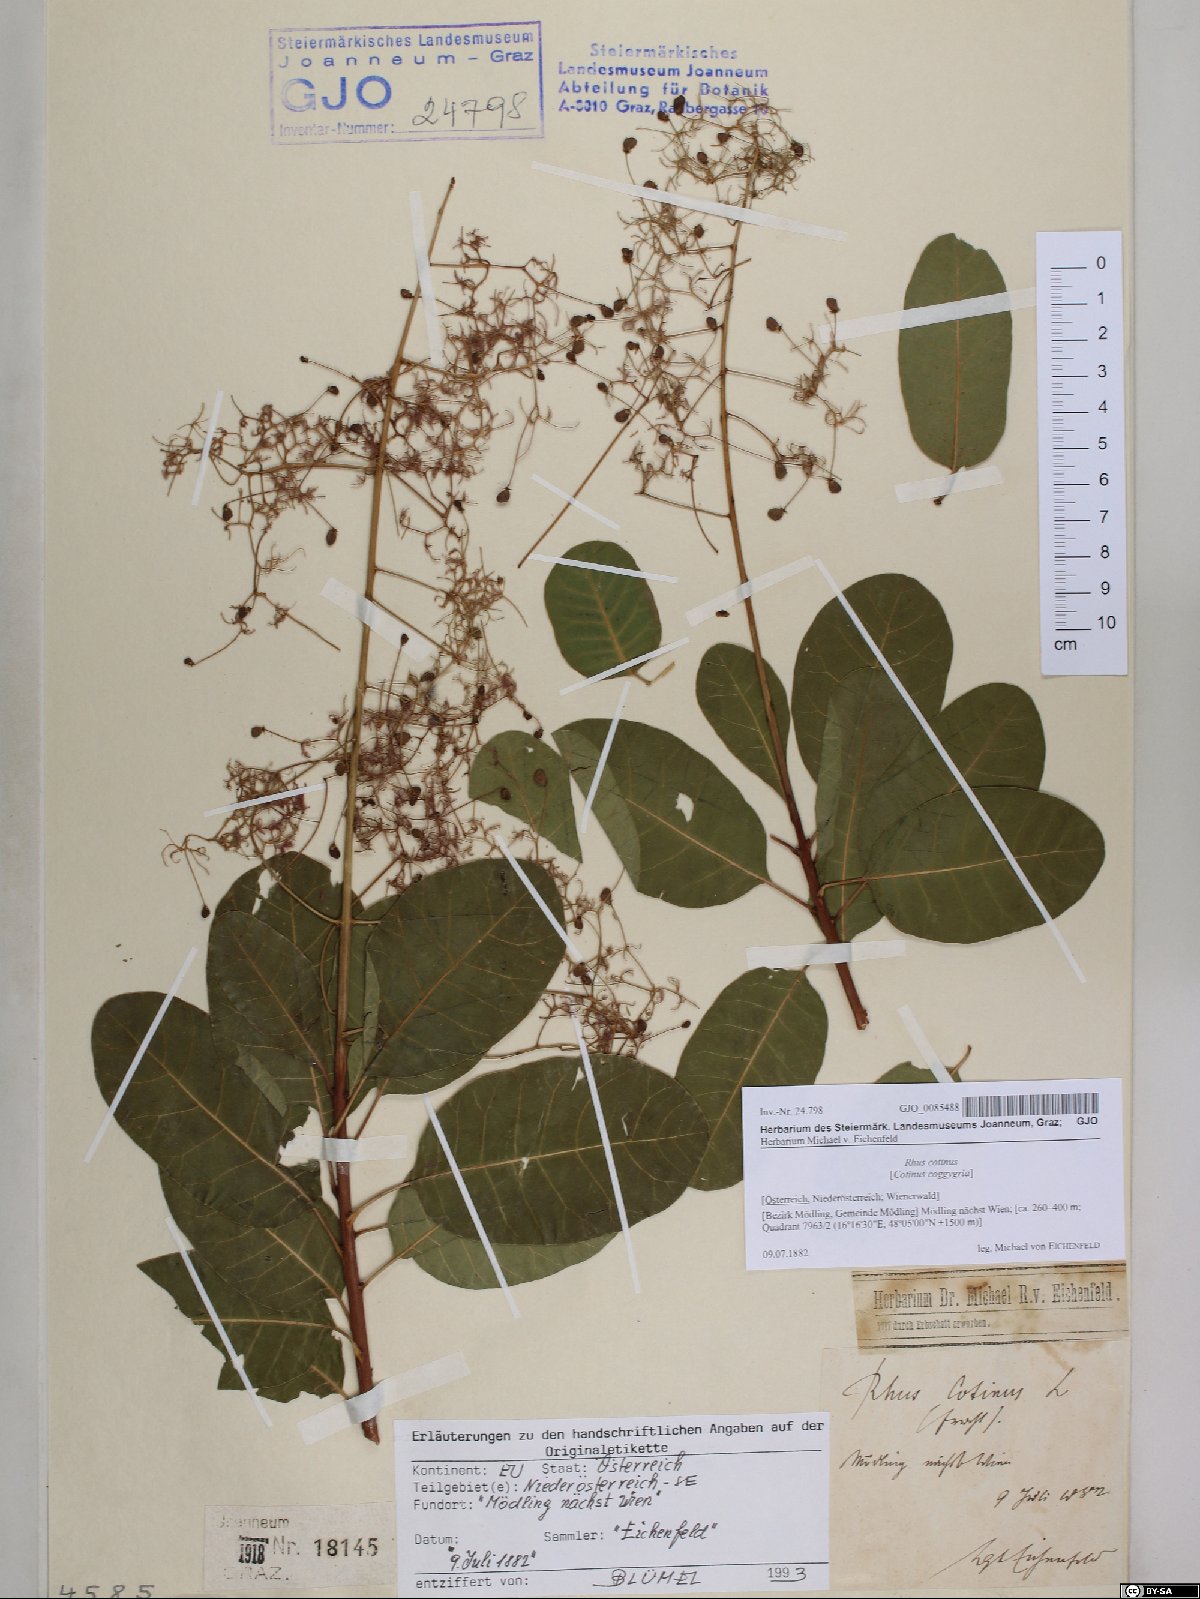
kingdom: Plantae
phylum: Tracheophyta
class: Magnoliopsida
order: Sapindales
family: Anacardiaceae
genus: Cotinus
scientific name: Cotinus coggygria
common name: Smoke-tree
